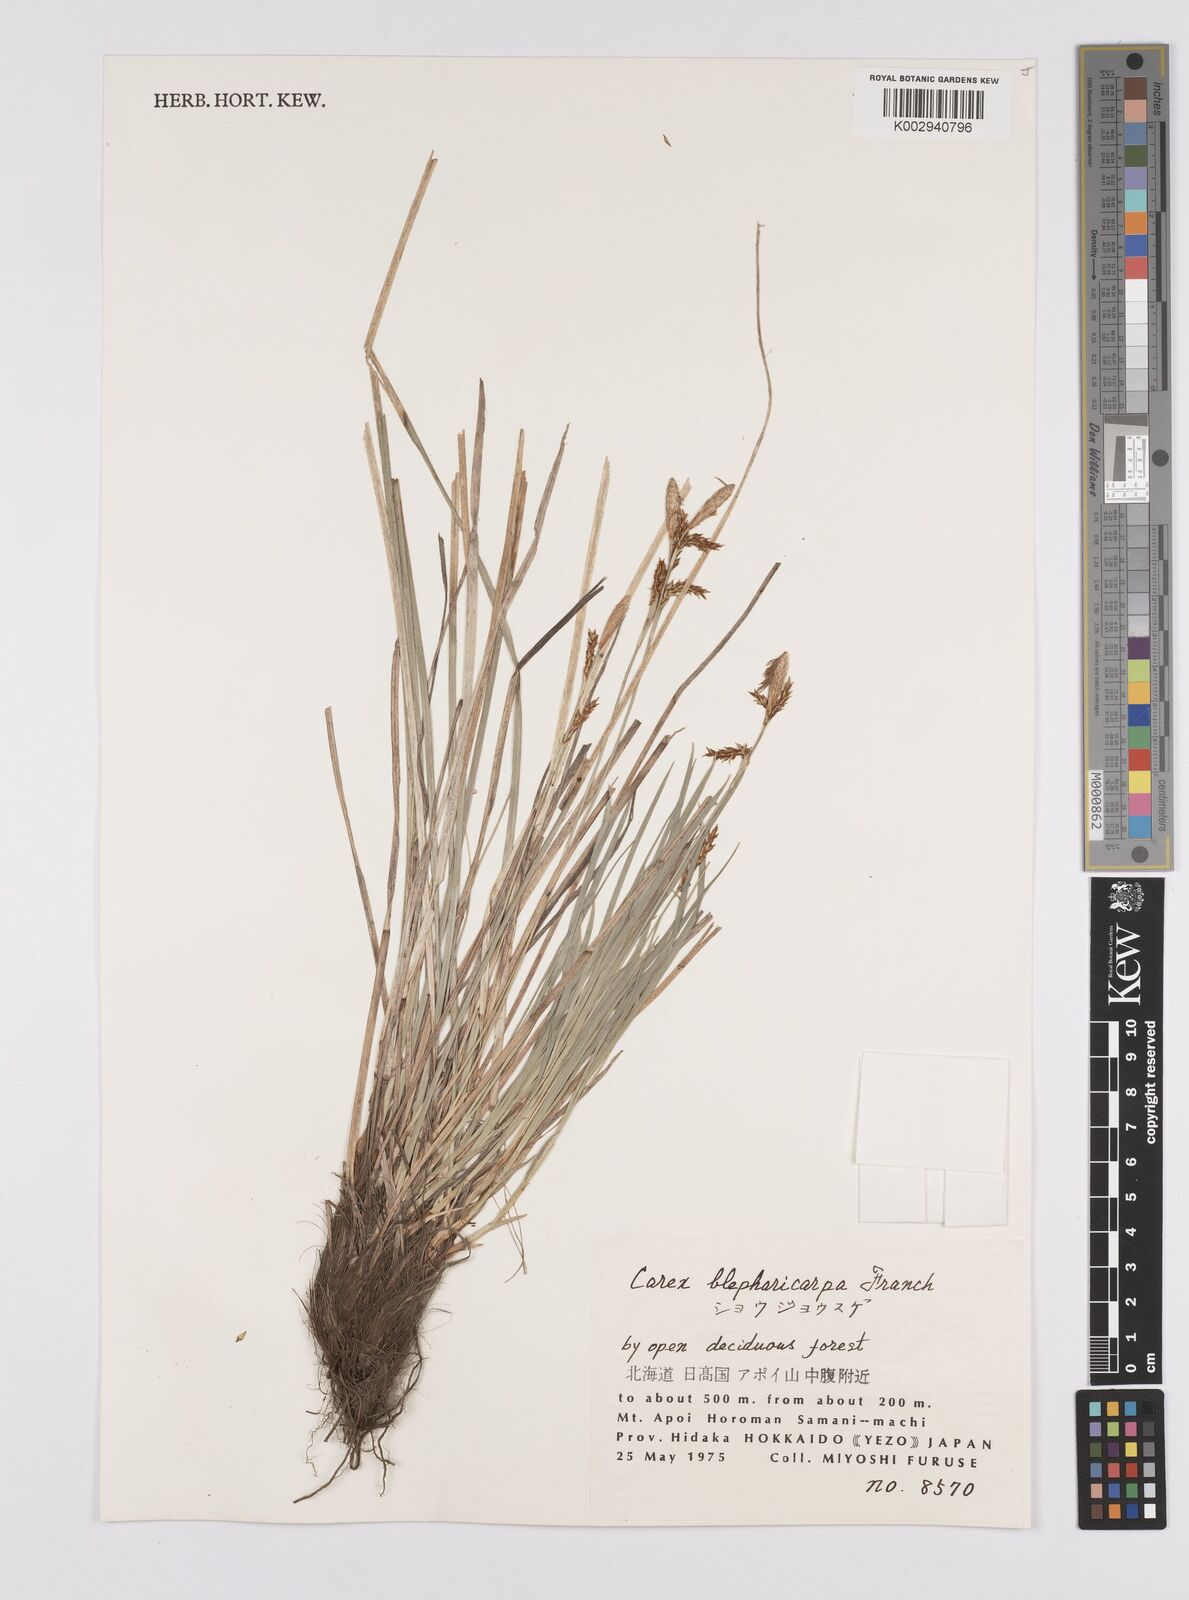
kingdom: Plantae
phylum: Tracheophyta
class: Liliopsida
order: Poales
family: Cyperaceae
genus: Carex
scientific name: Carex blepharicarpa
